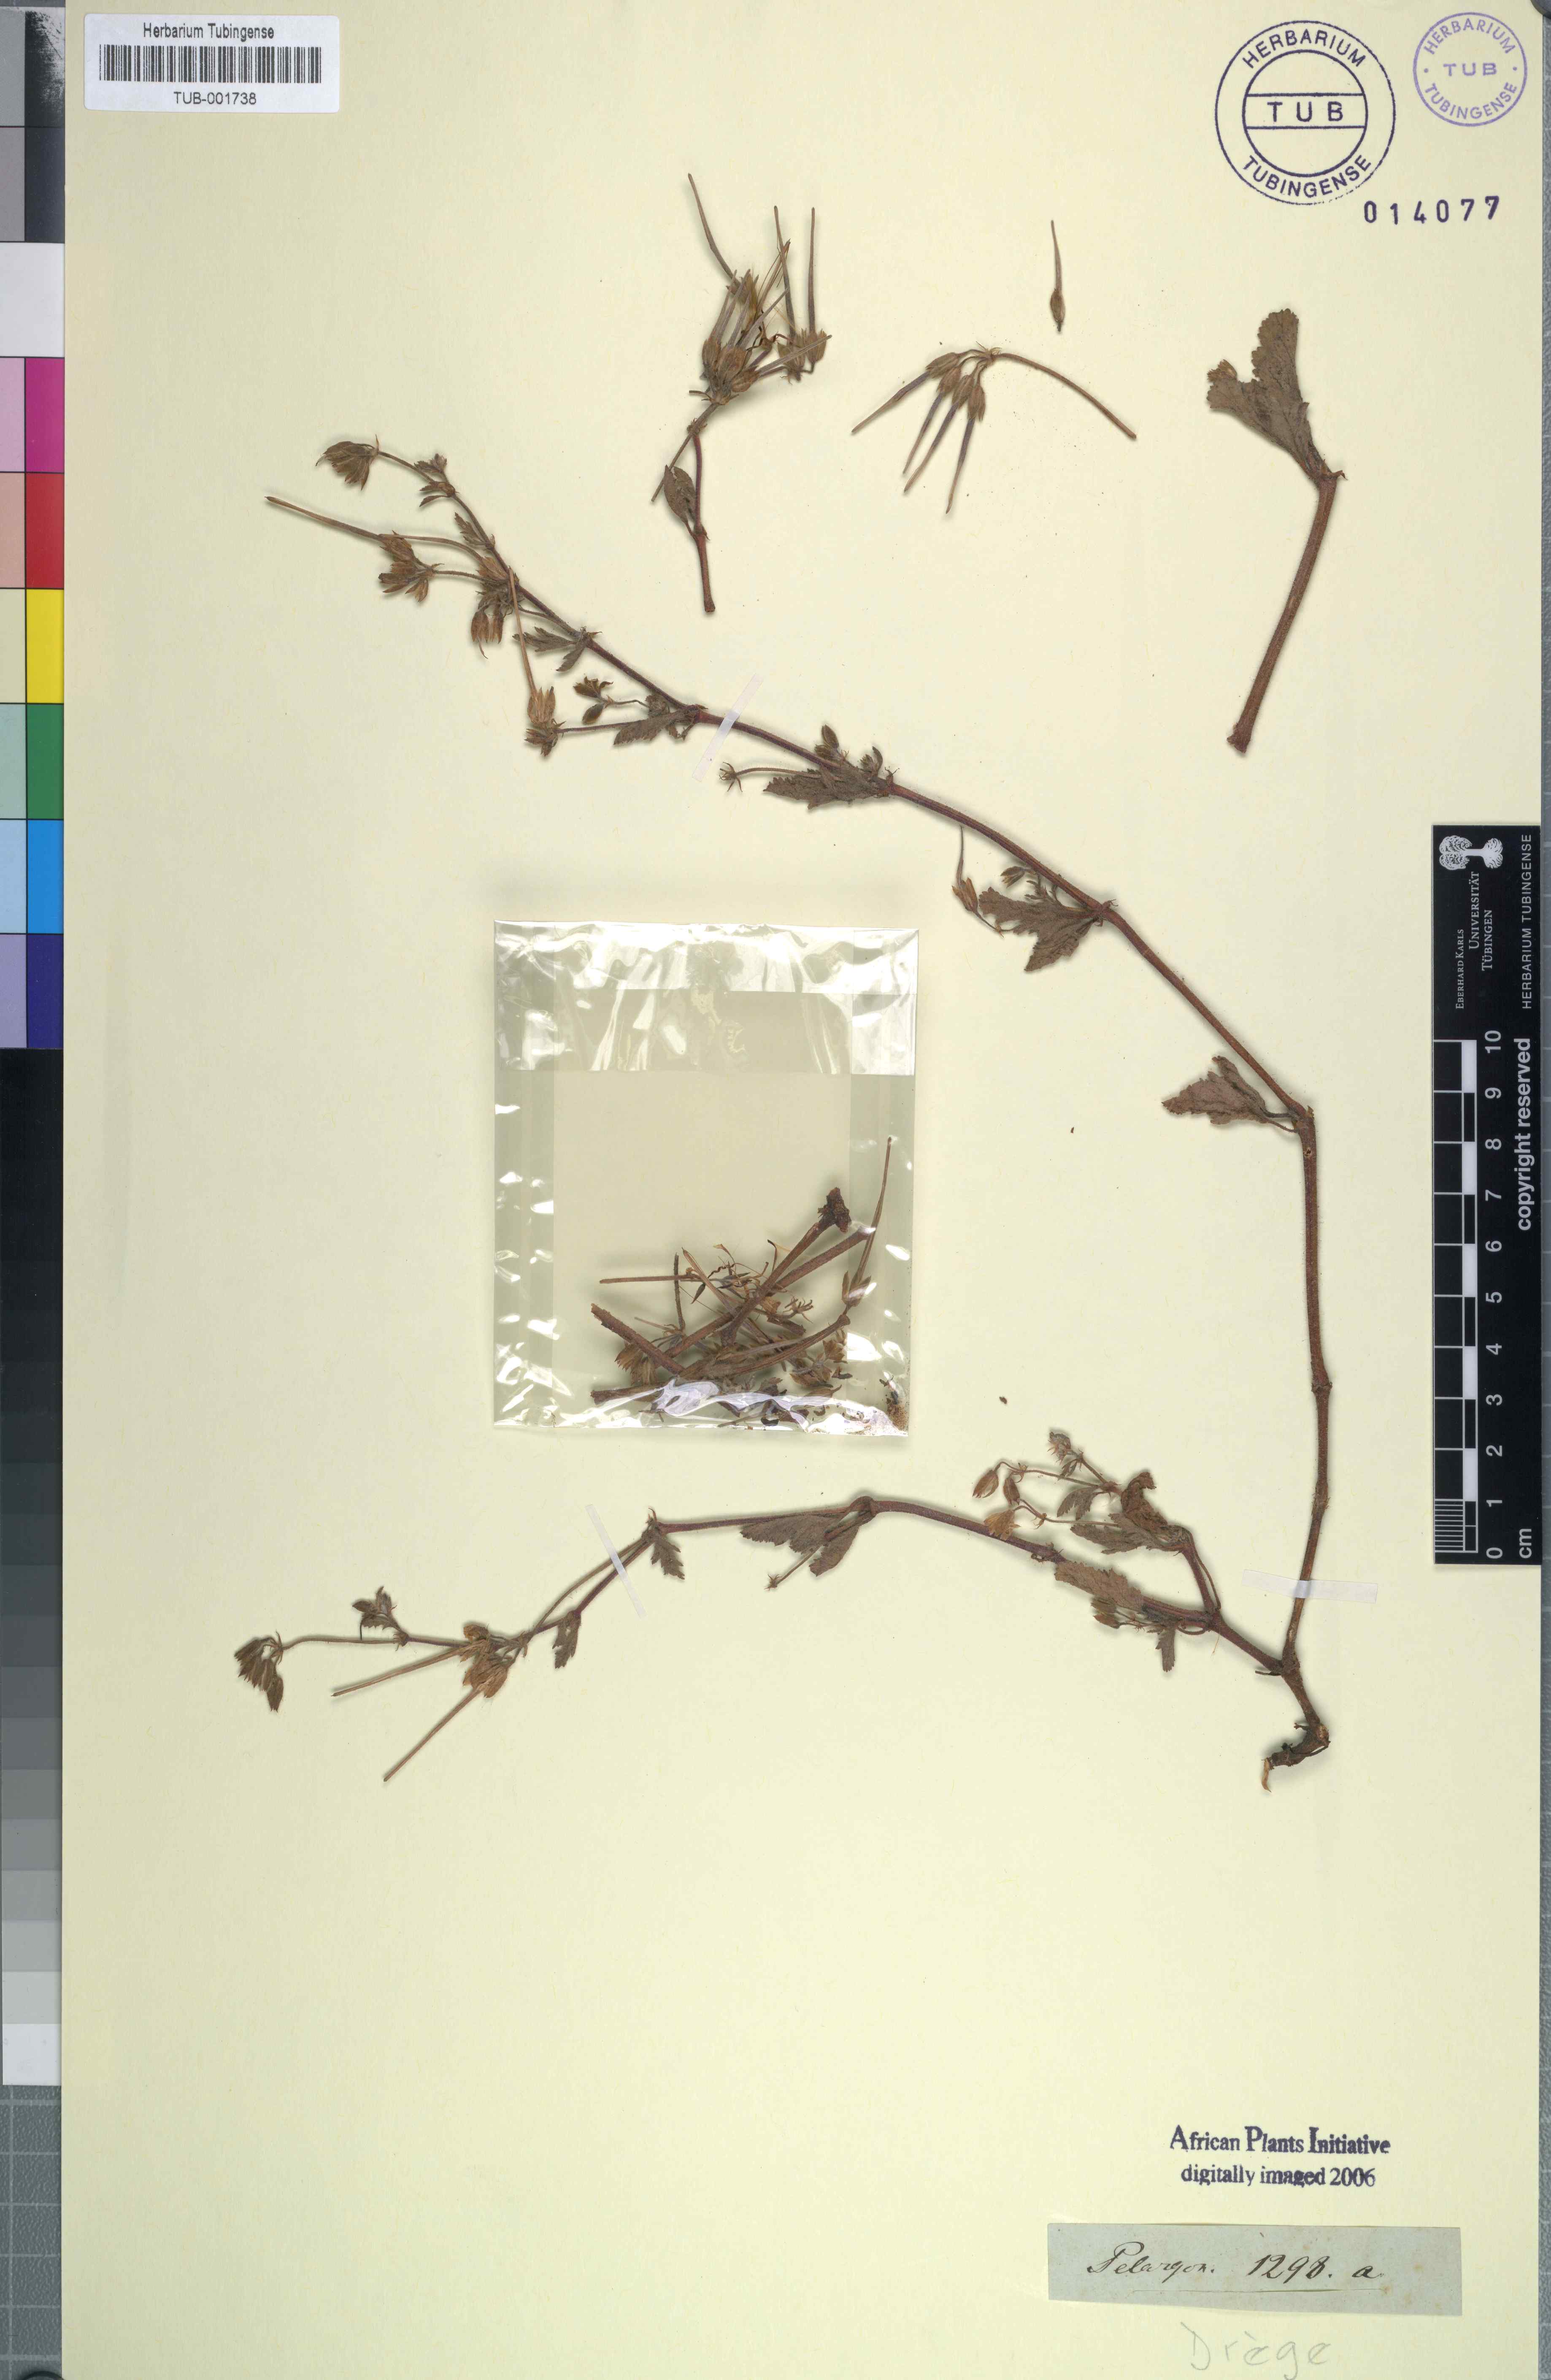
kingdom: Plantae
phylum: Tracheophyta
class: Magnoliopsida
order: Geraniales
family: Geraniaceae
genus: Pelargonium
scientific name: Pelargonium
